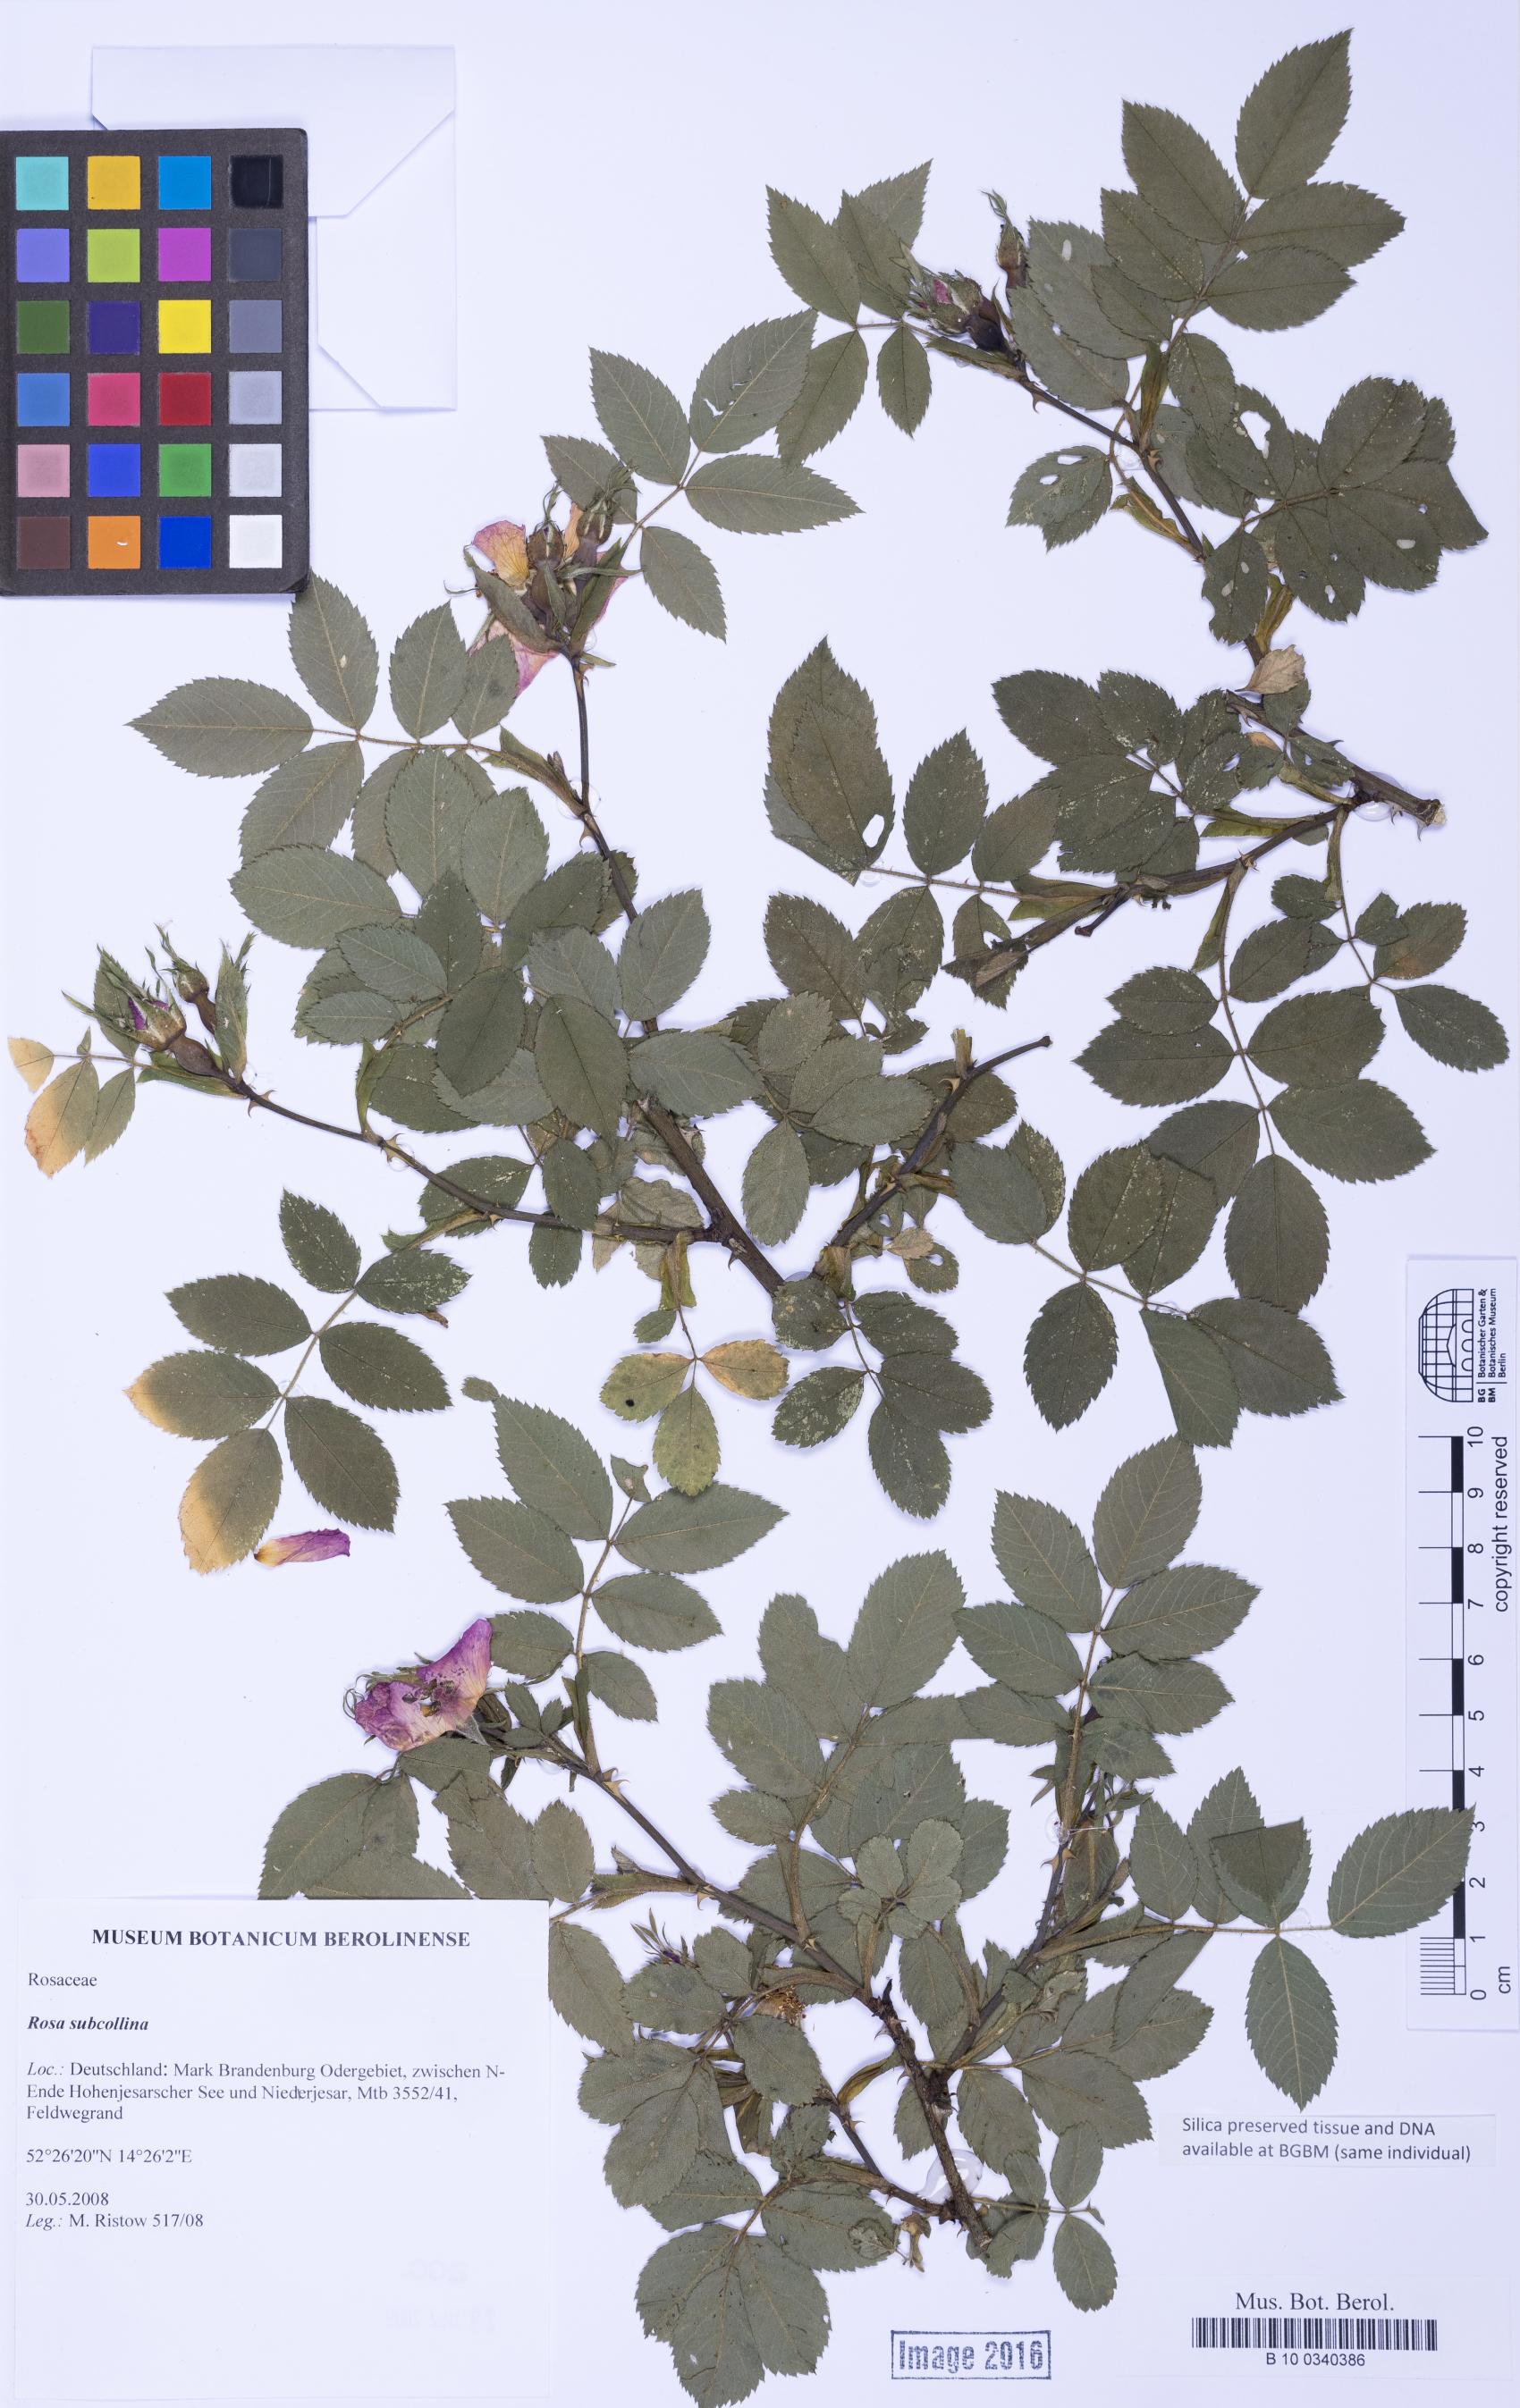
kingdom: Plantae
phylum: Tracheophyta
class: Magnoliopsida
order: Rosales
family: Rosaceae
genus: Rosa
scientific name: Rosa subcollina
